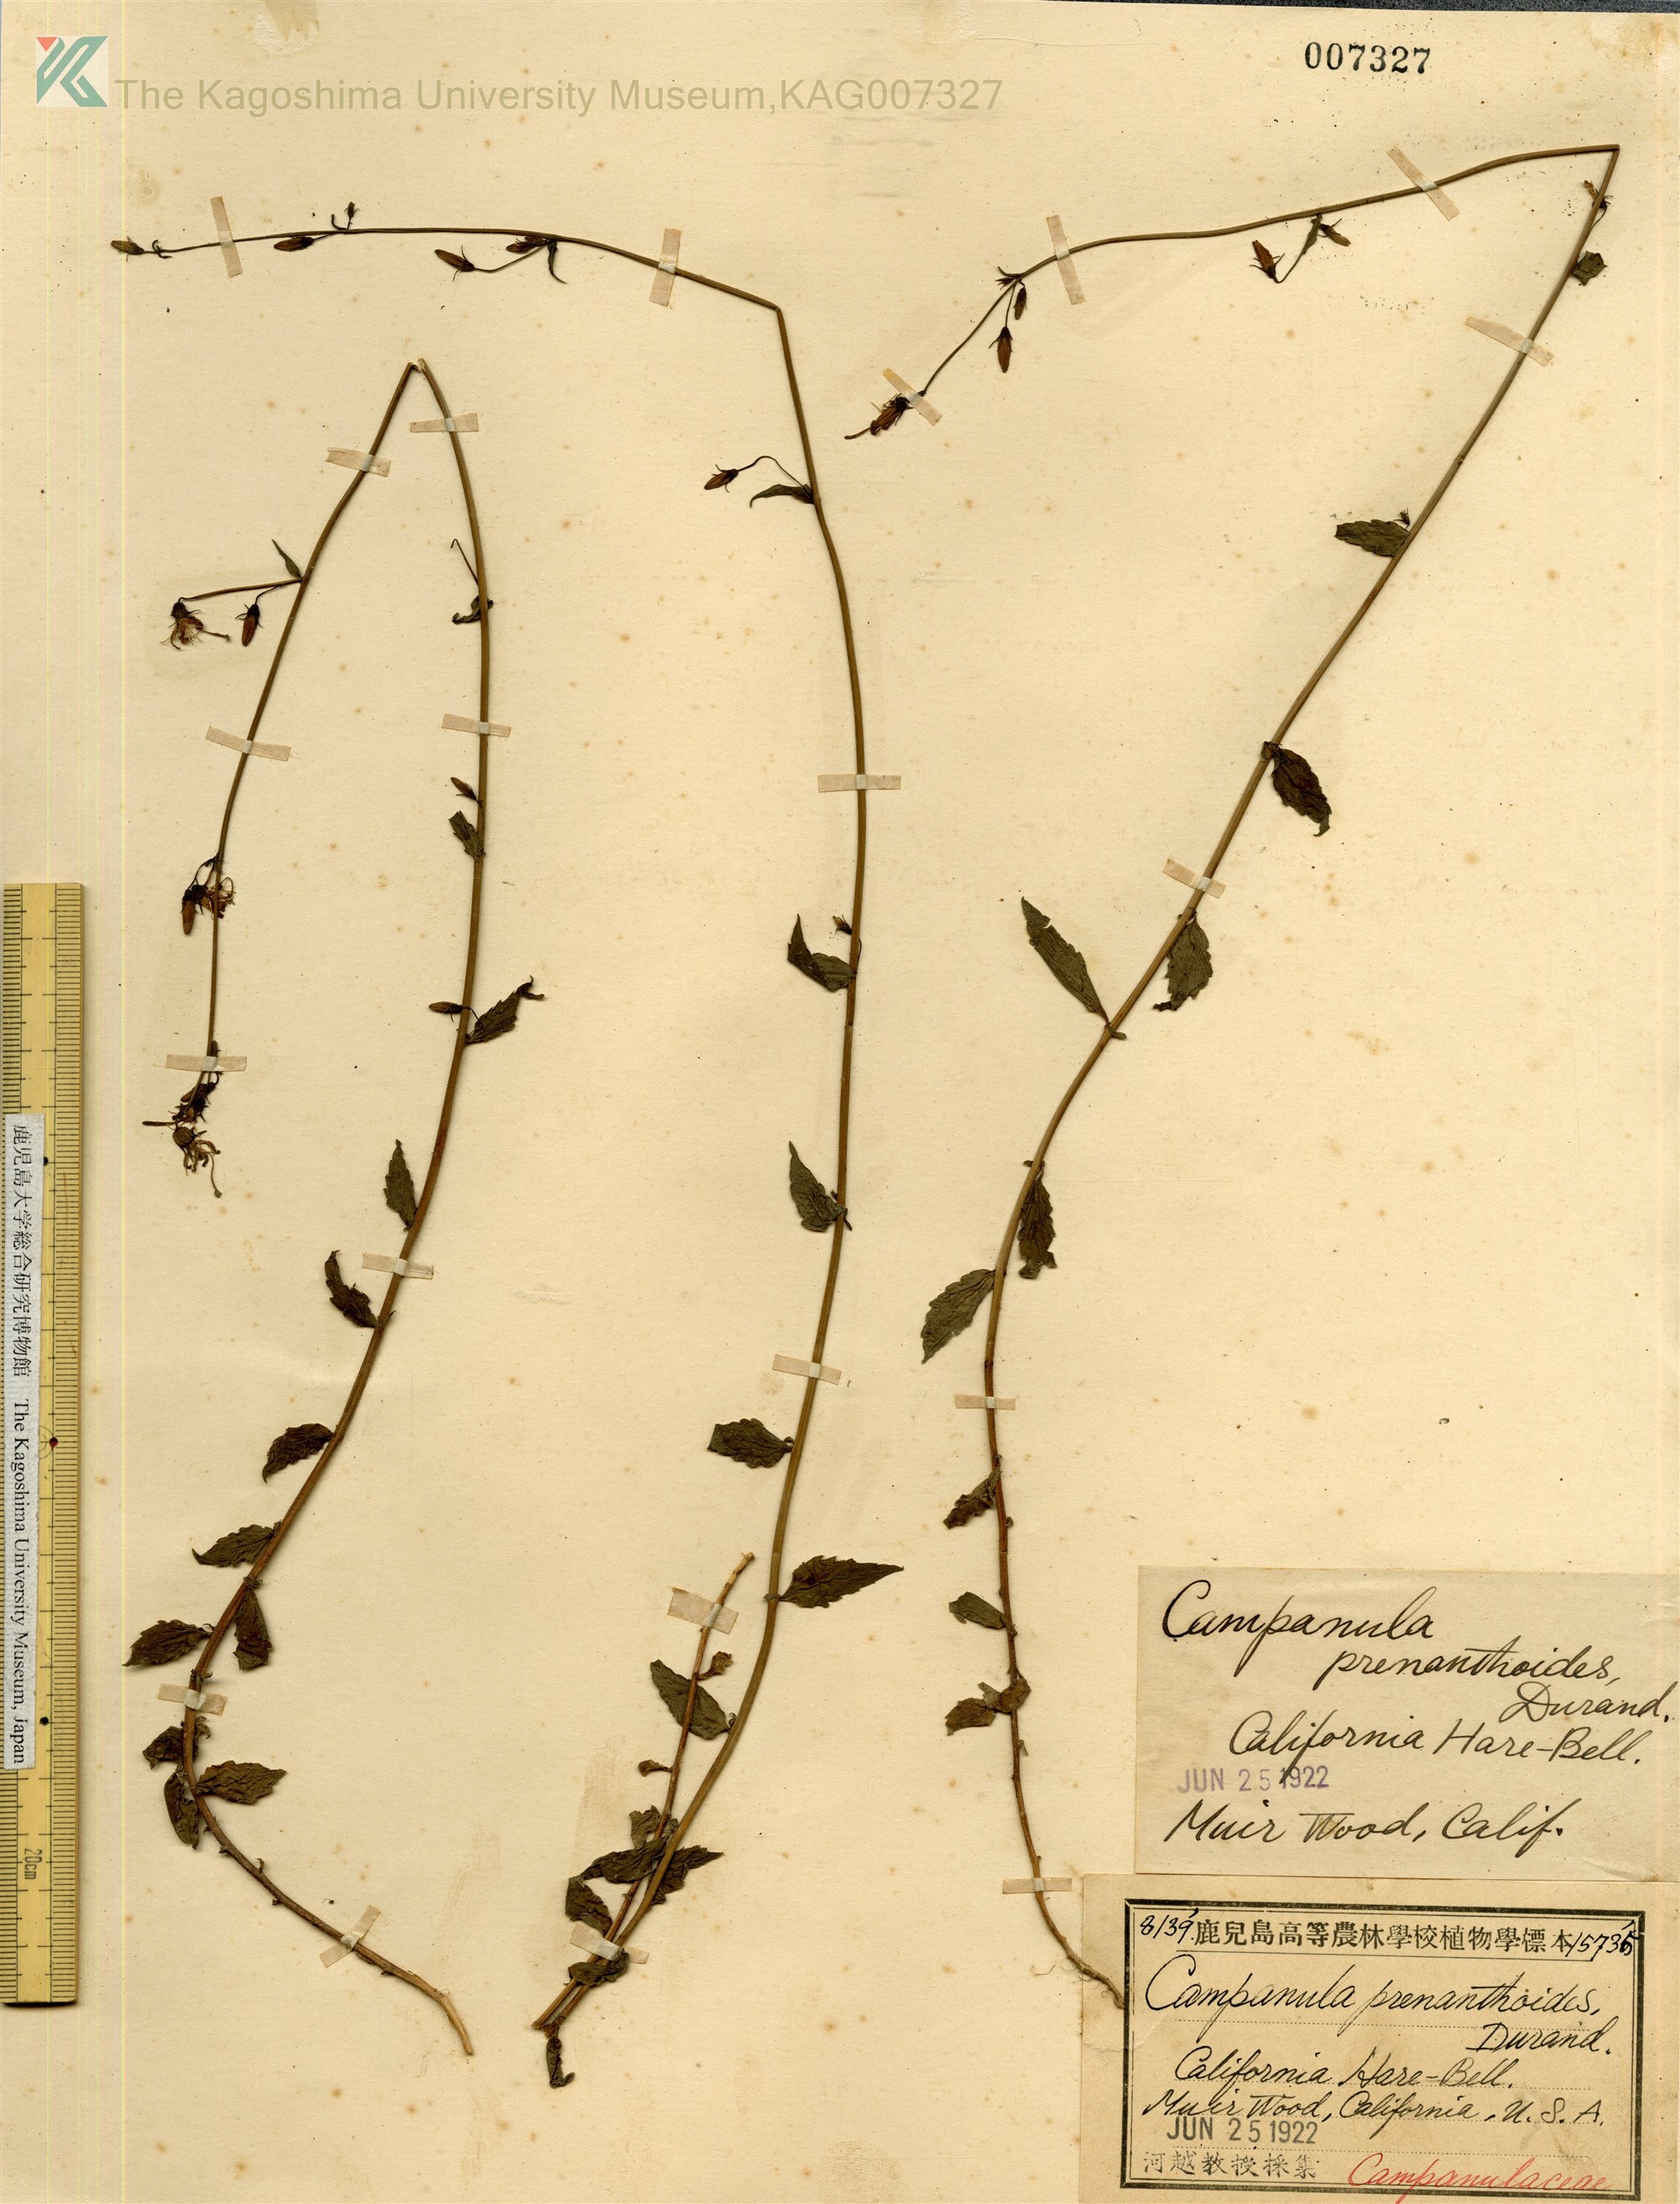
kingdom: Plantae
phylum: Tracheophyta
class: Magnoliopsida
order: Asterales
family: Campanulaceae
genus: Smithiastrum
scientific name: Smithiastrum prenanthoides
